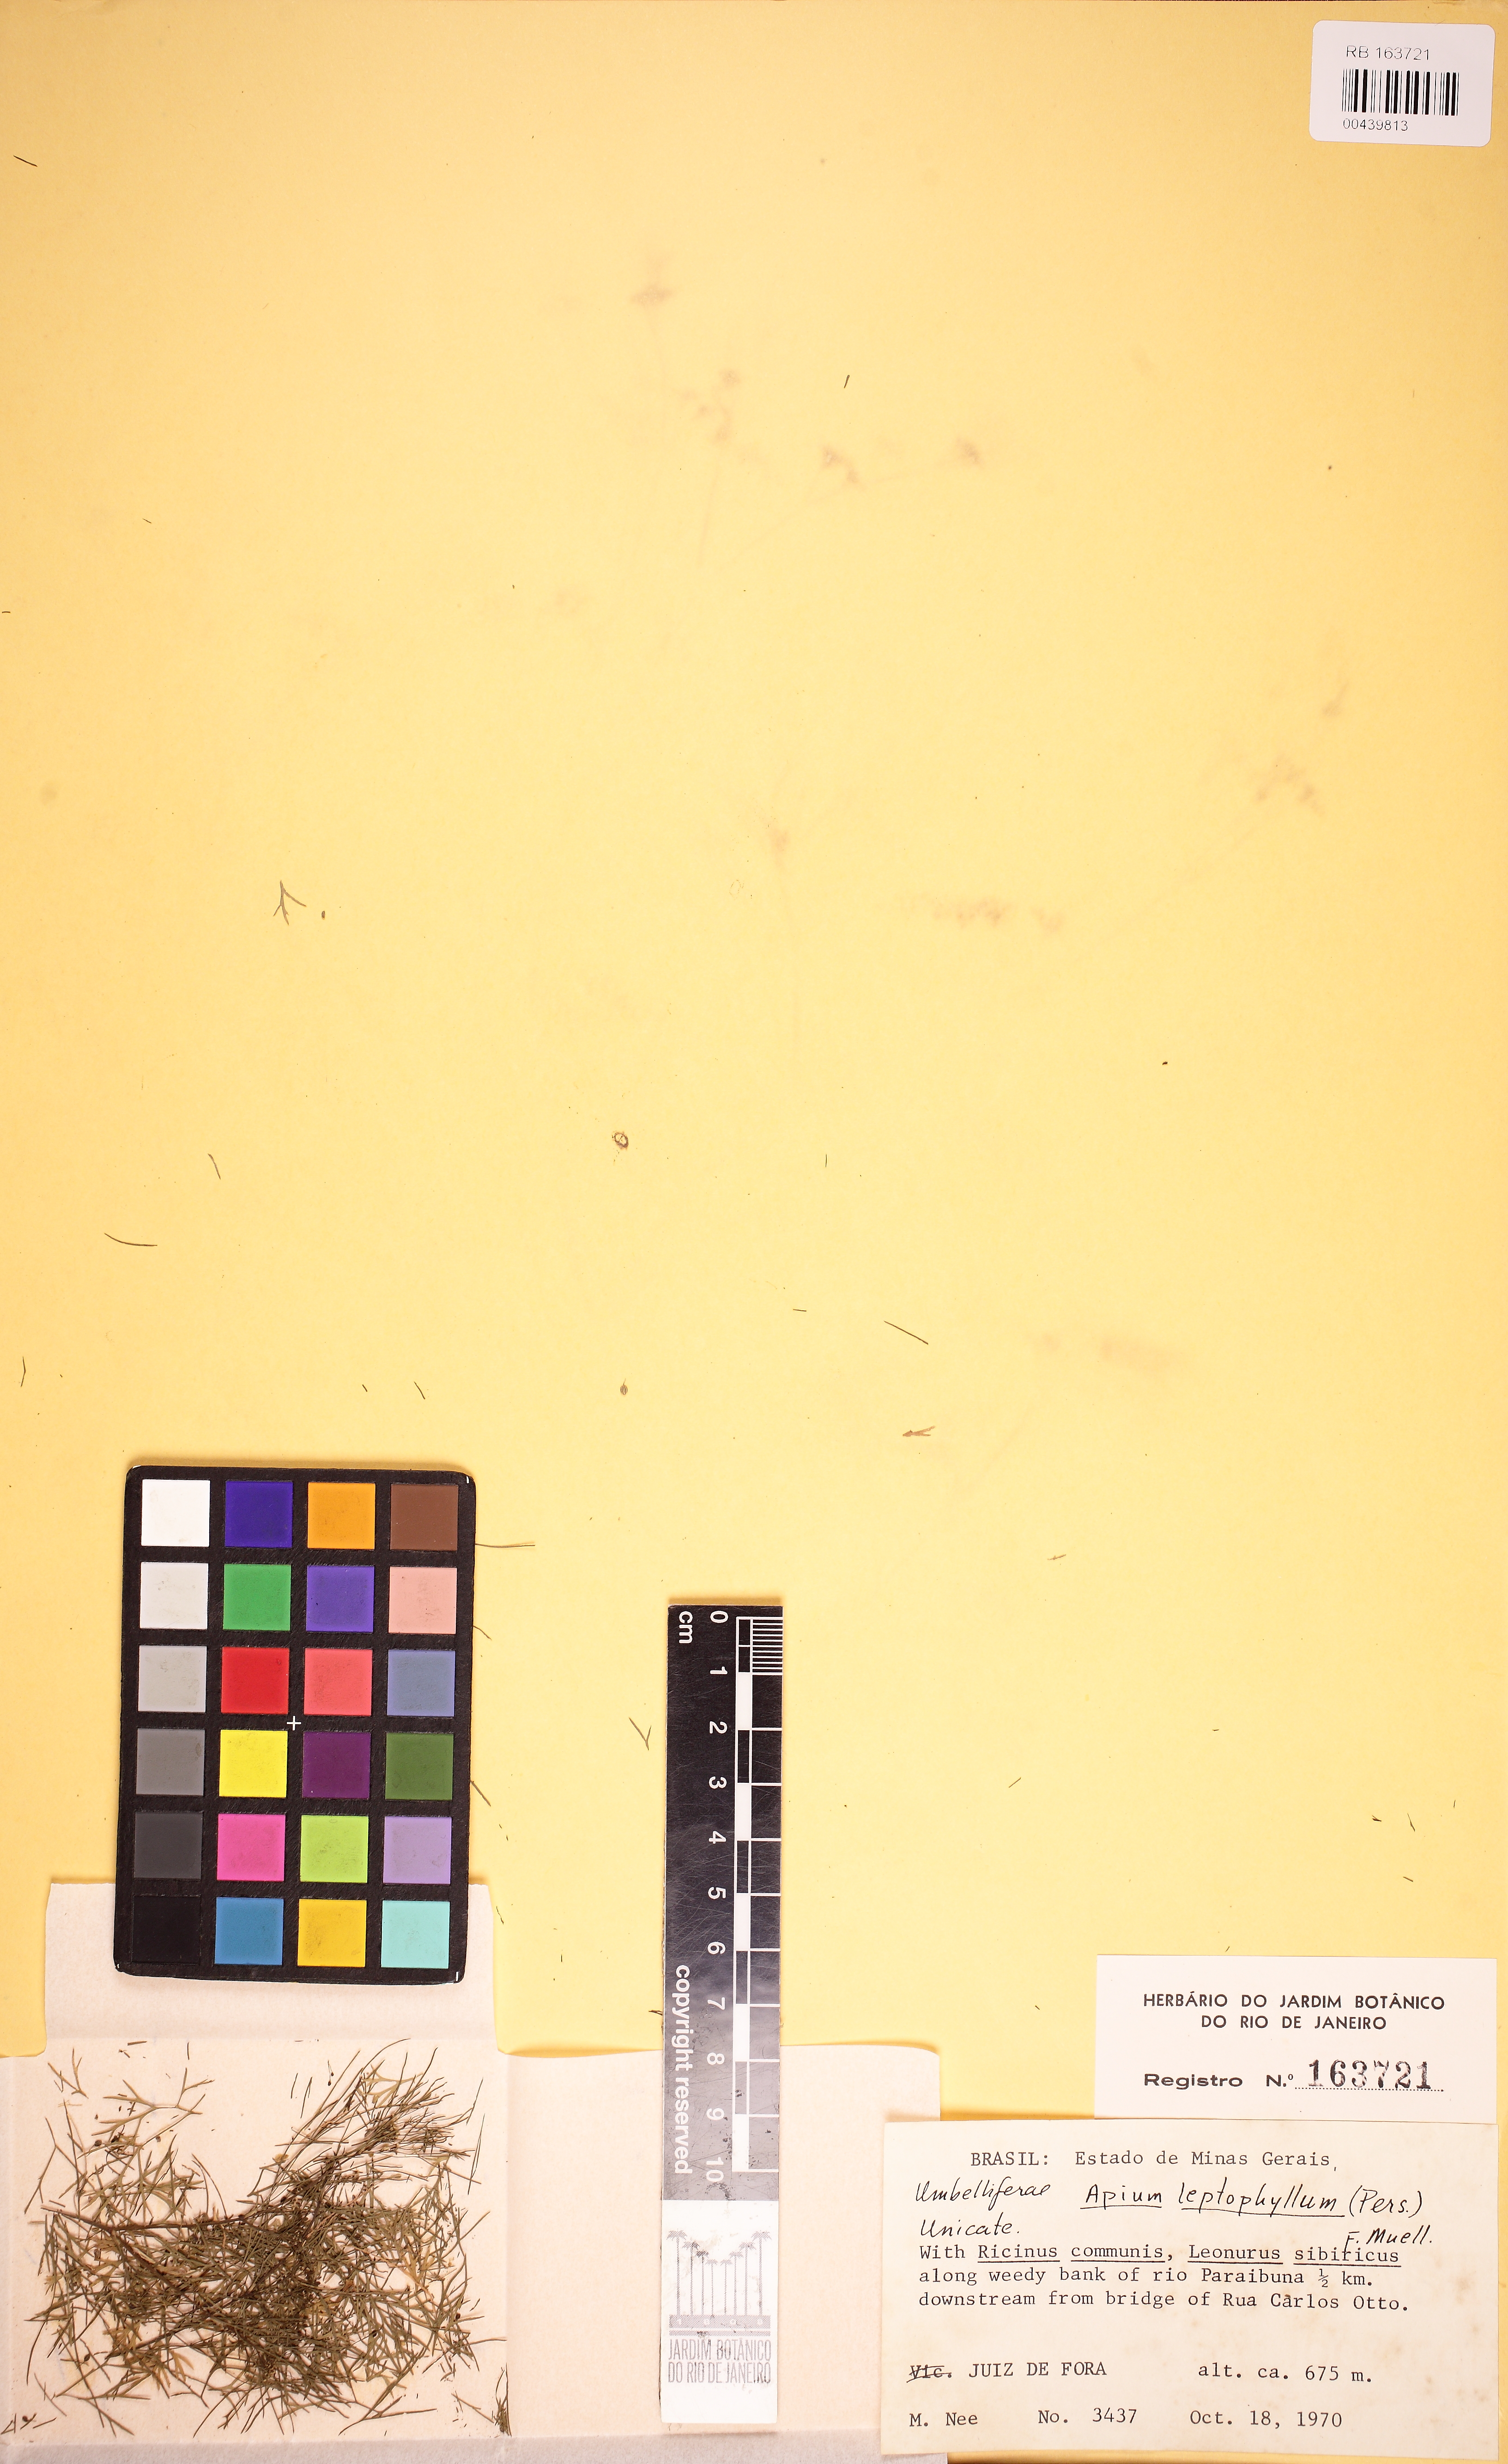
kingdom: Plantae
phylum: Tracheophyta
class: Magnoliopsida
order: Apiales
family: Apiaceae
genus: Cyclospermum
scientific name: Cyclospermum leptophyllum
